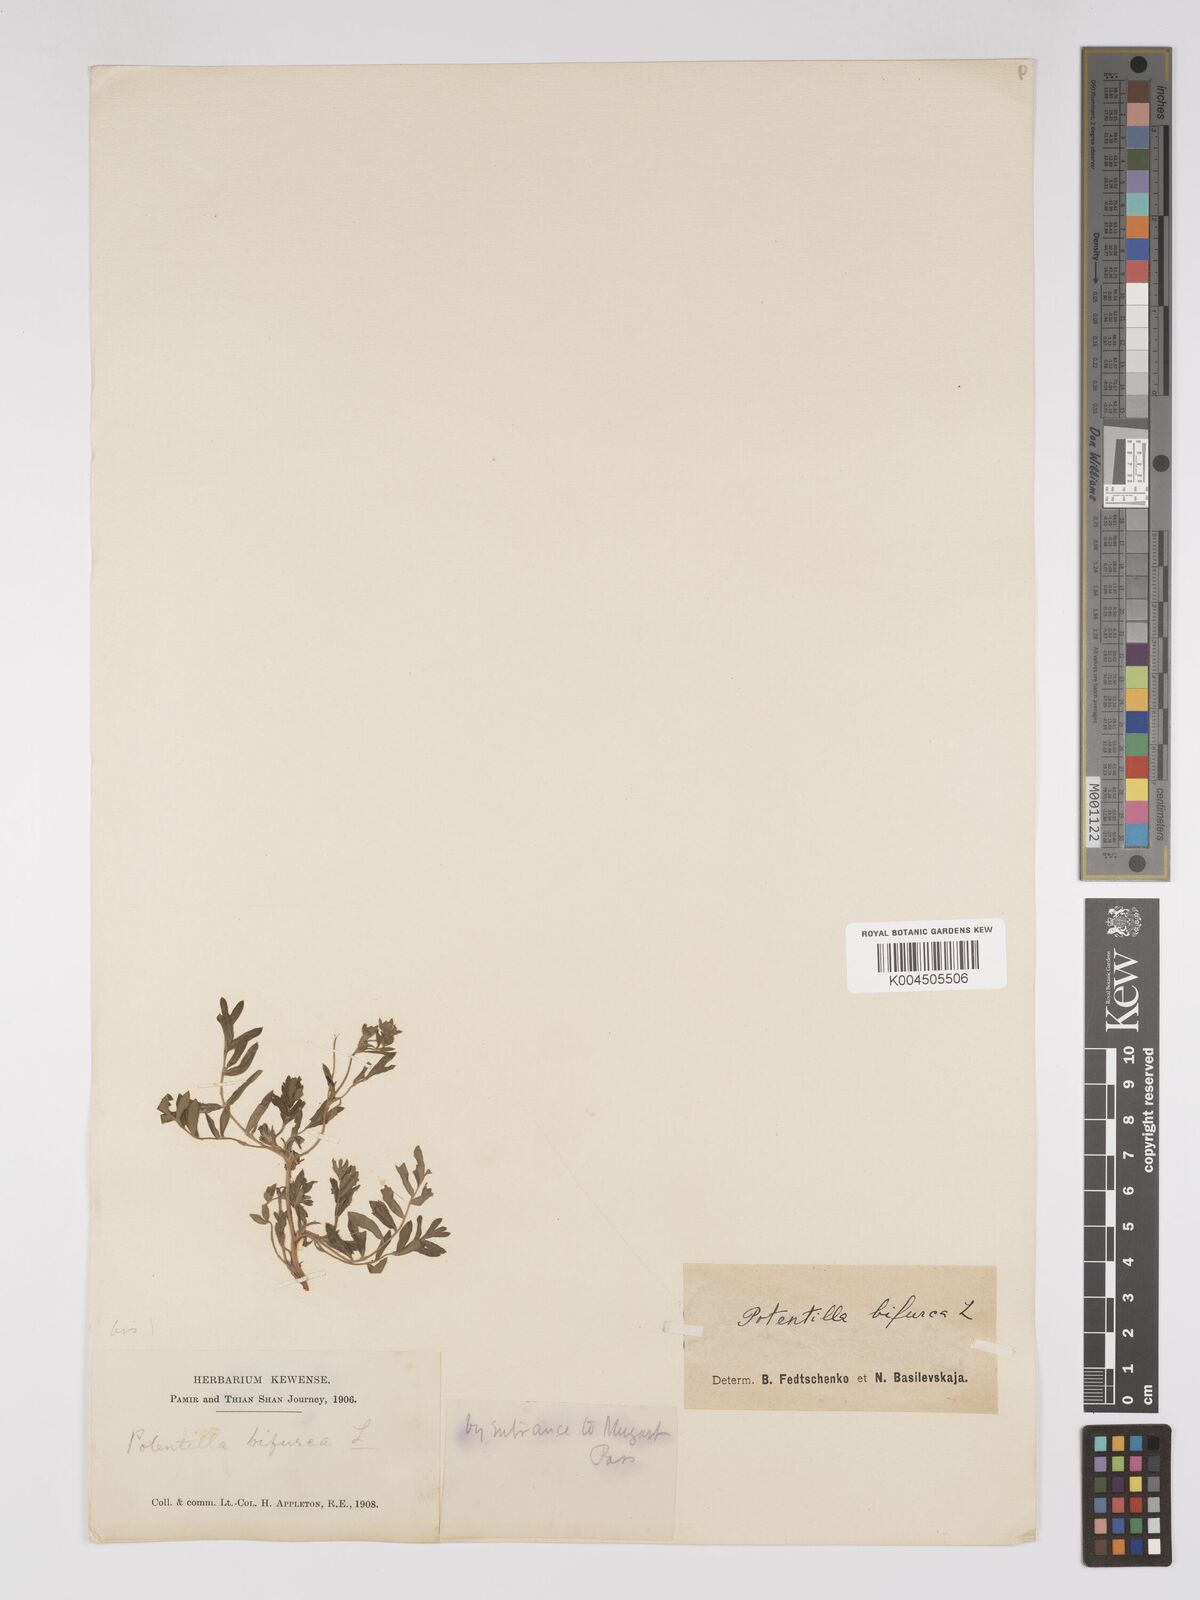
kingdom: Plantae
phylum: Tracheophyta
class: Magnoliopsida
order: Rosales
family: Rosaceae
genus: Sibbaldianthe
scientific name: Sibbaldianthe bifurca
